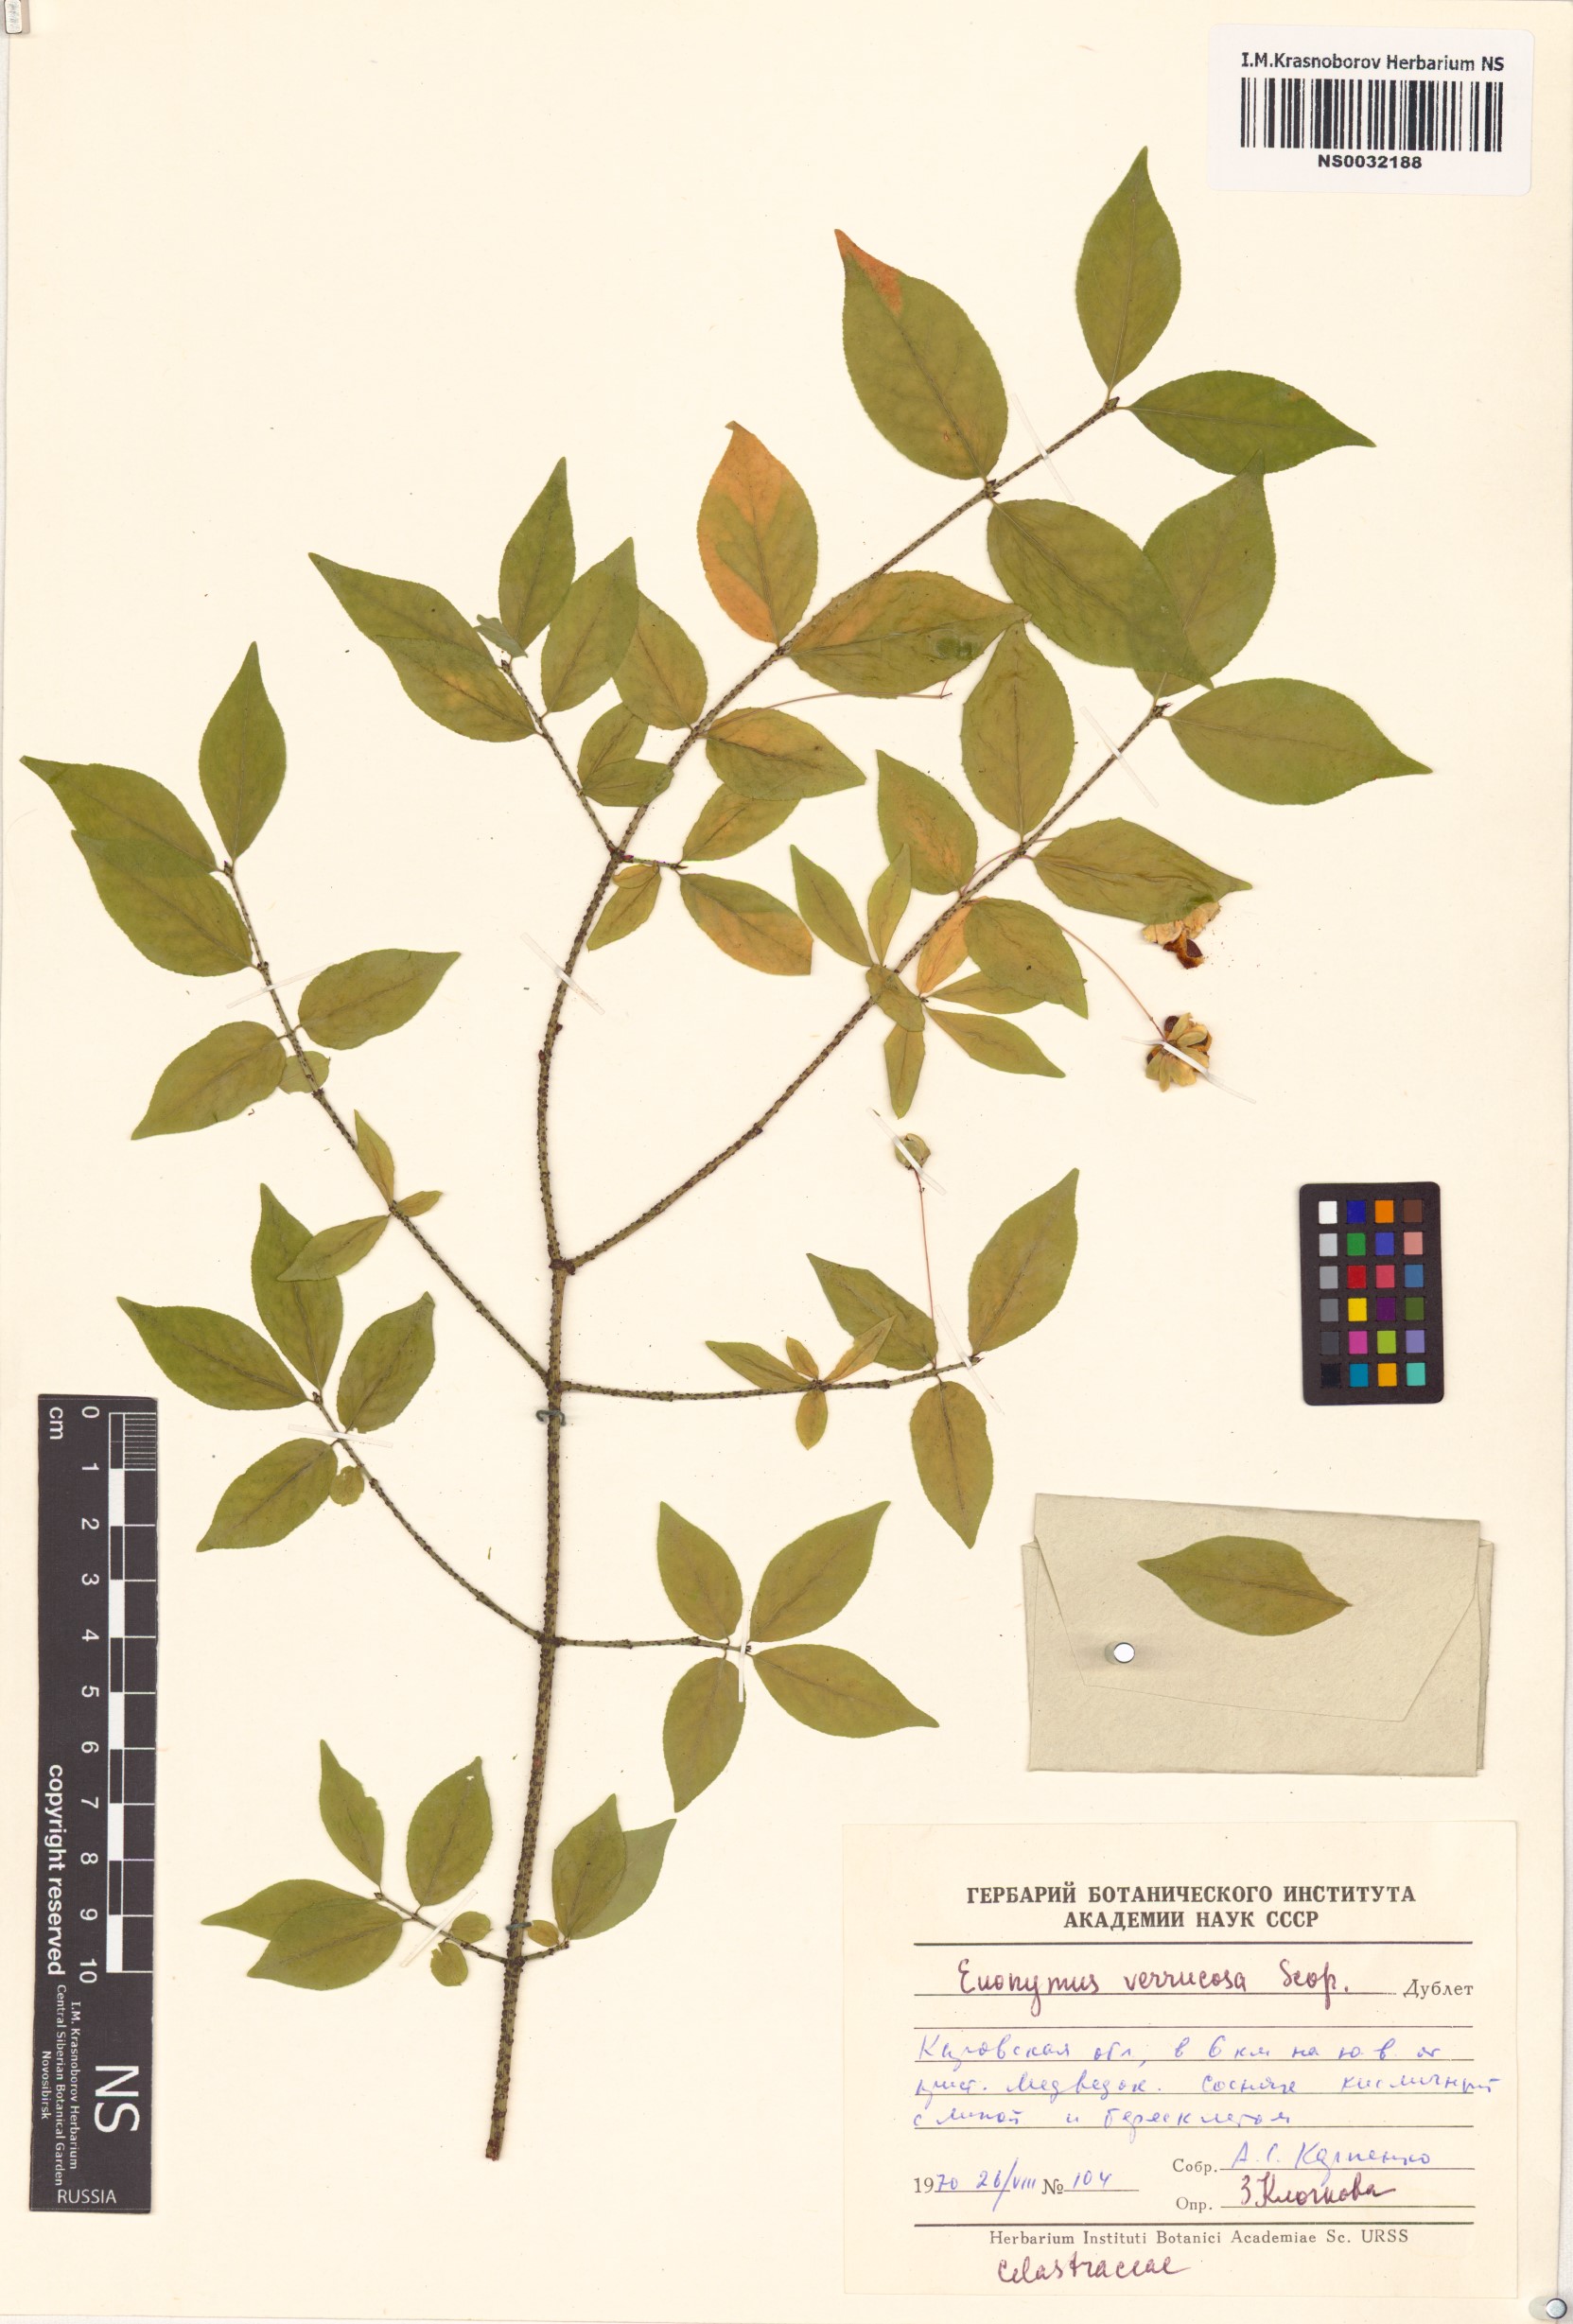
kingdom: Plantae
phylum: Tracheophyta
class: Magnoliopsida
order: Celastrales
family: Celastraceae
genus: Euonymus
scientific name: Euonymus verrucosus
